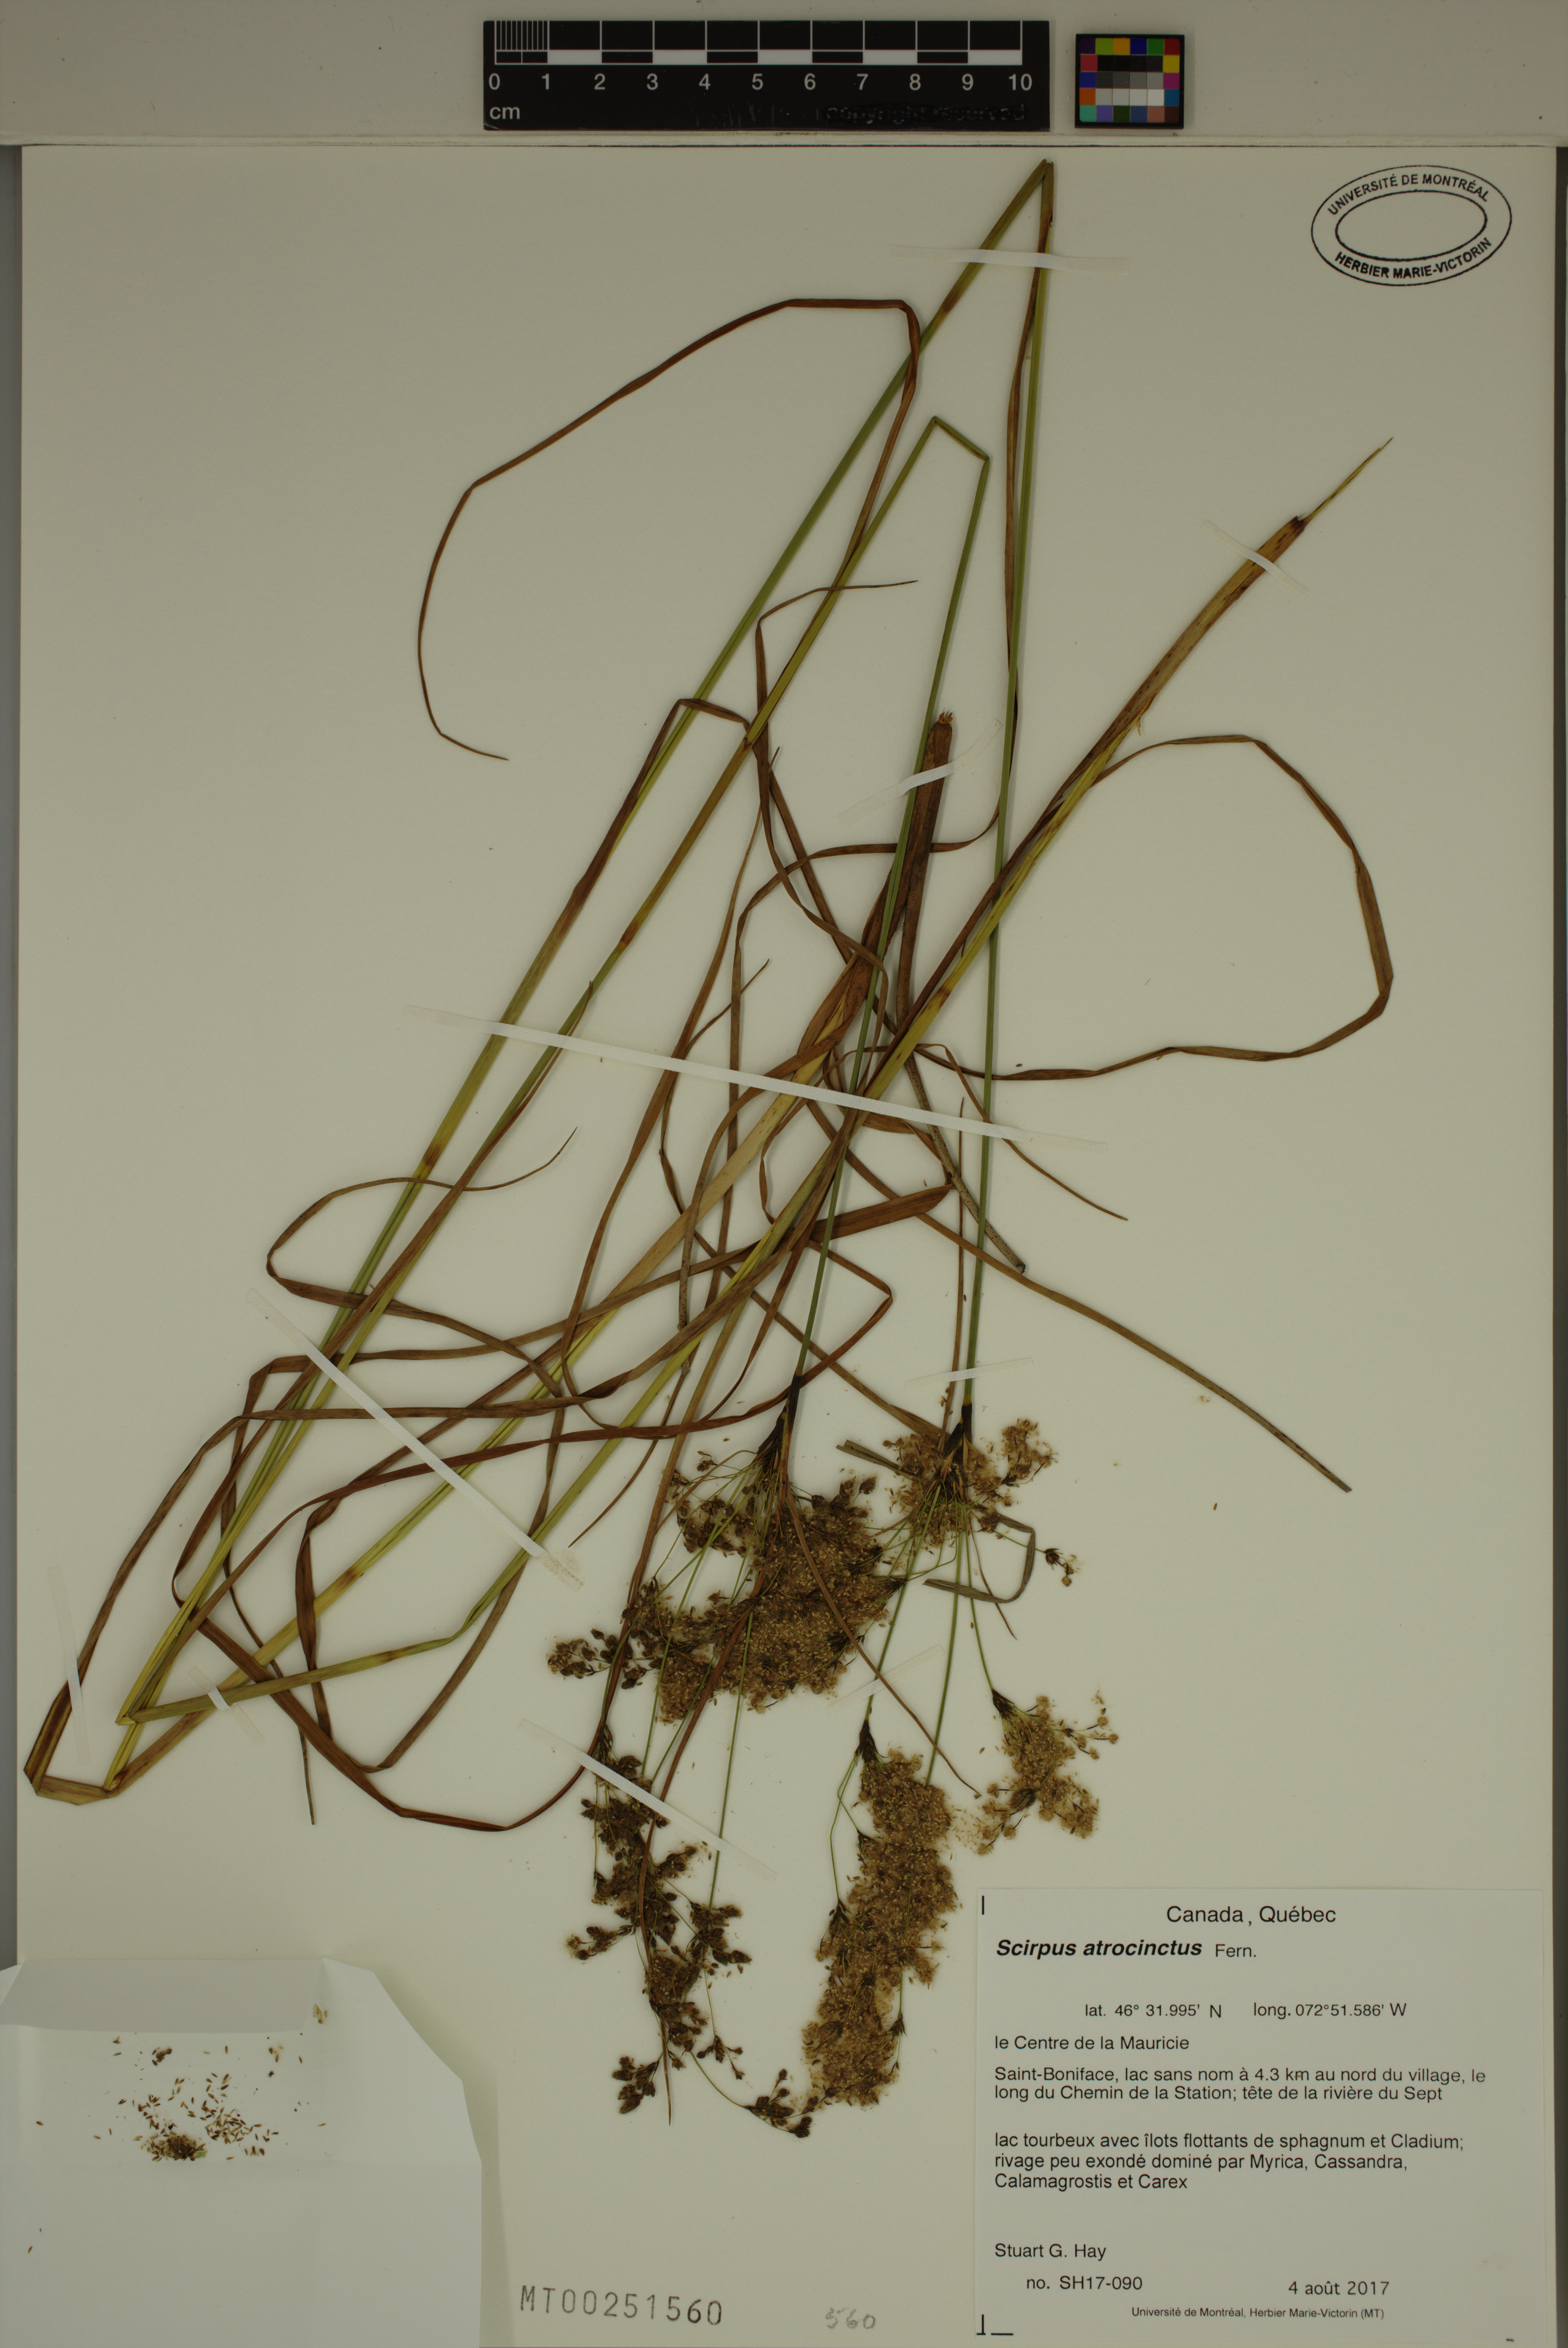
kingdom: Plantae
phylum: Tracheophyta
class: Liliopsida
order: Poales
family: Cyperaceae
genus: Scirpus
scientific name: Scirpus atrocinctus
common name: Black-girdled bulrush
